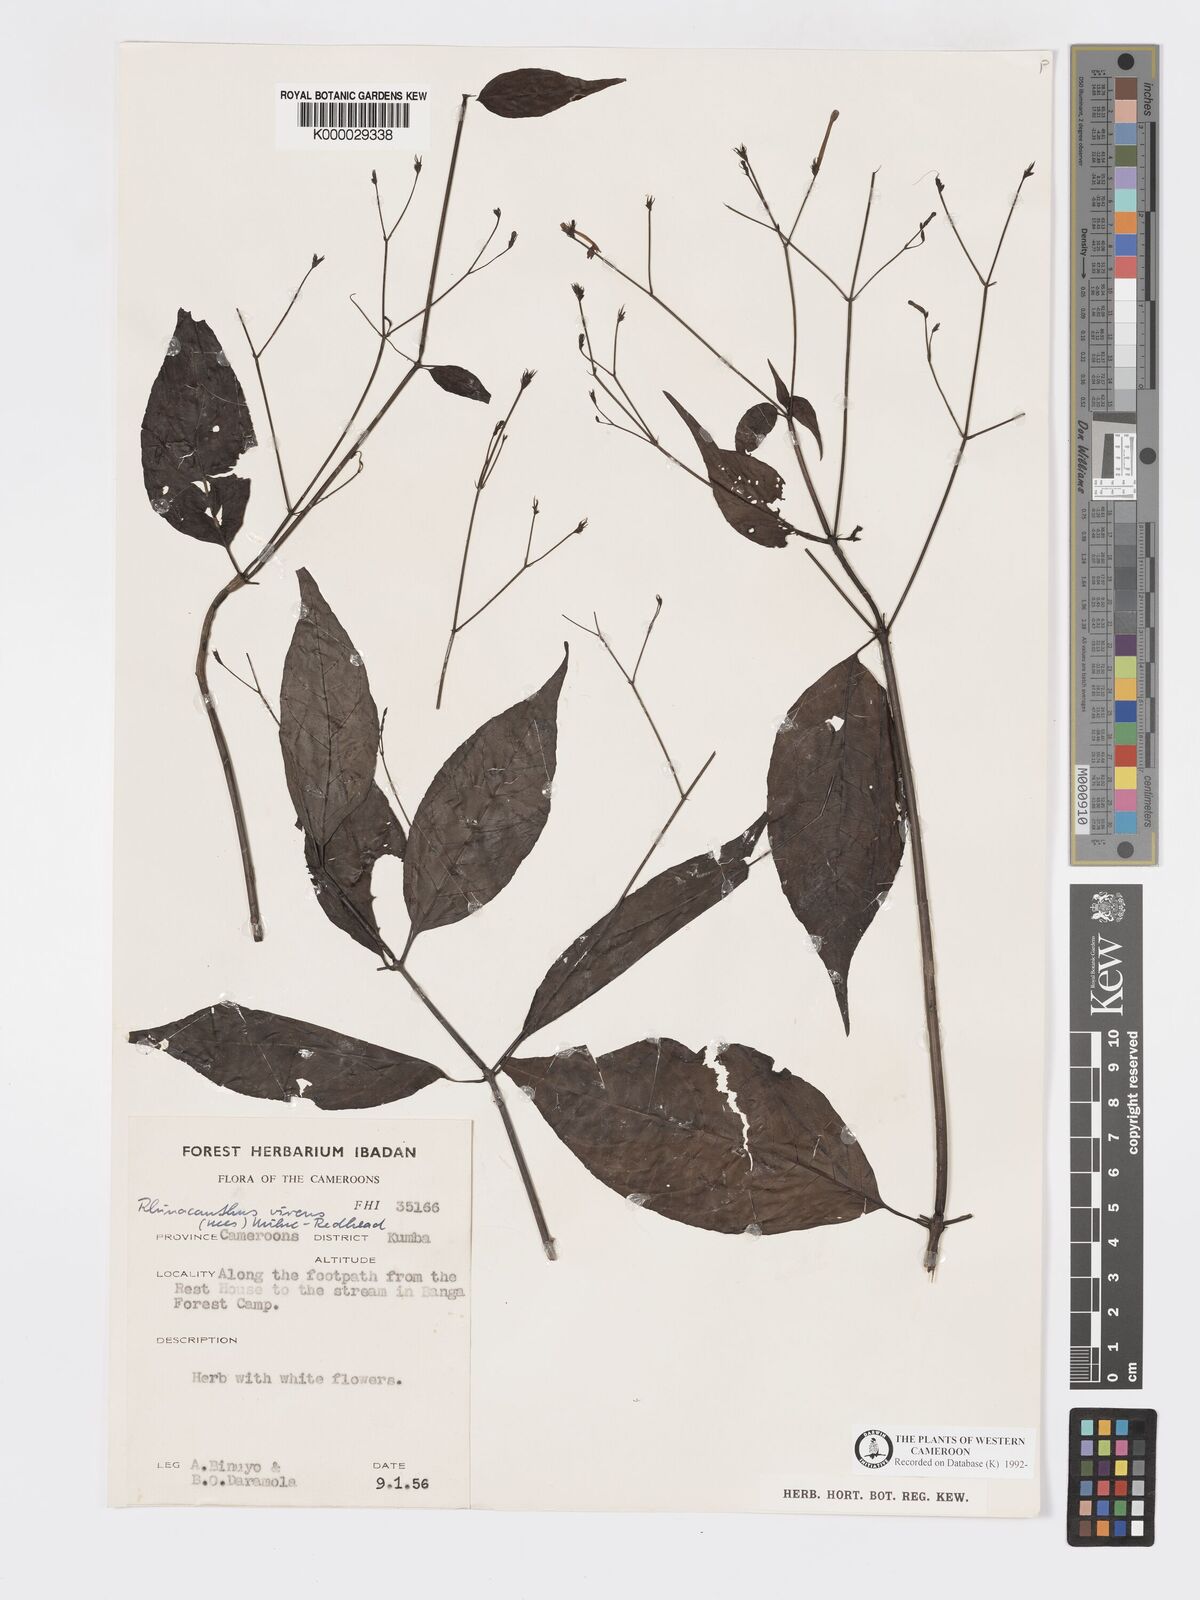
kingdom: Plantae
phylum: Tracheophyta
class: Magnoliopsida
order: Lamiales
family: Acanthaceae
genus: Rhinacanthus
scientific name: Rhinacanthus virens
